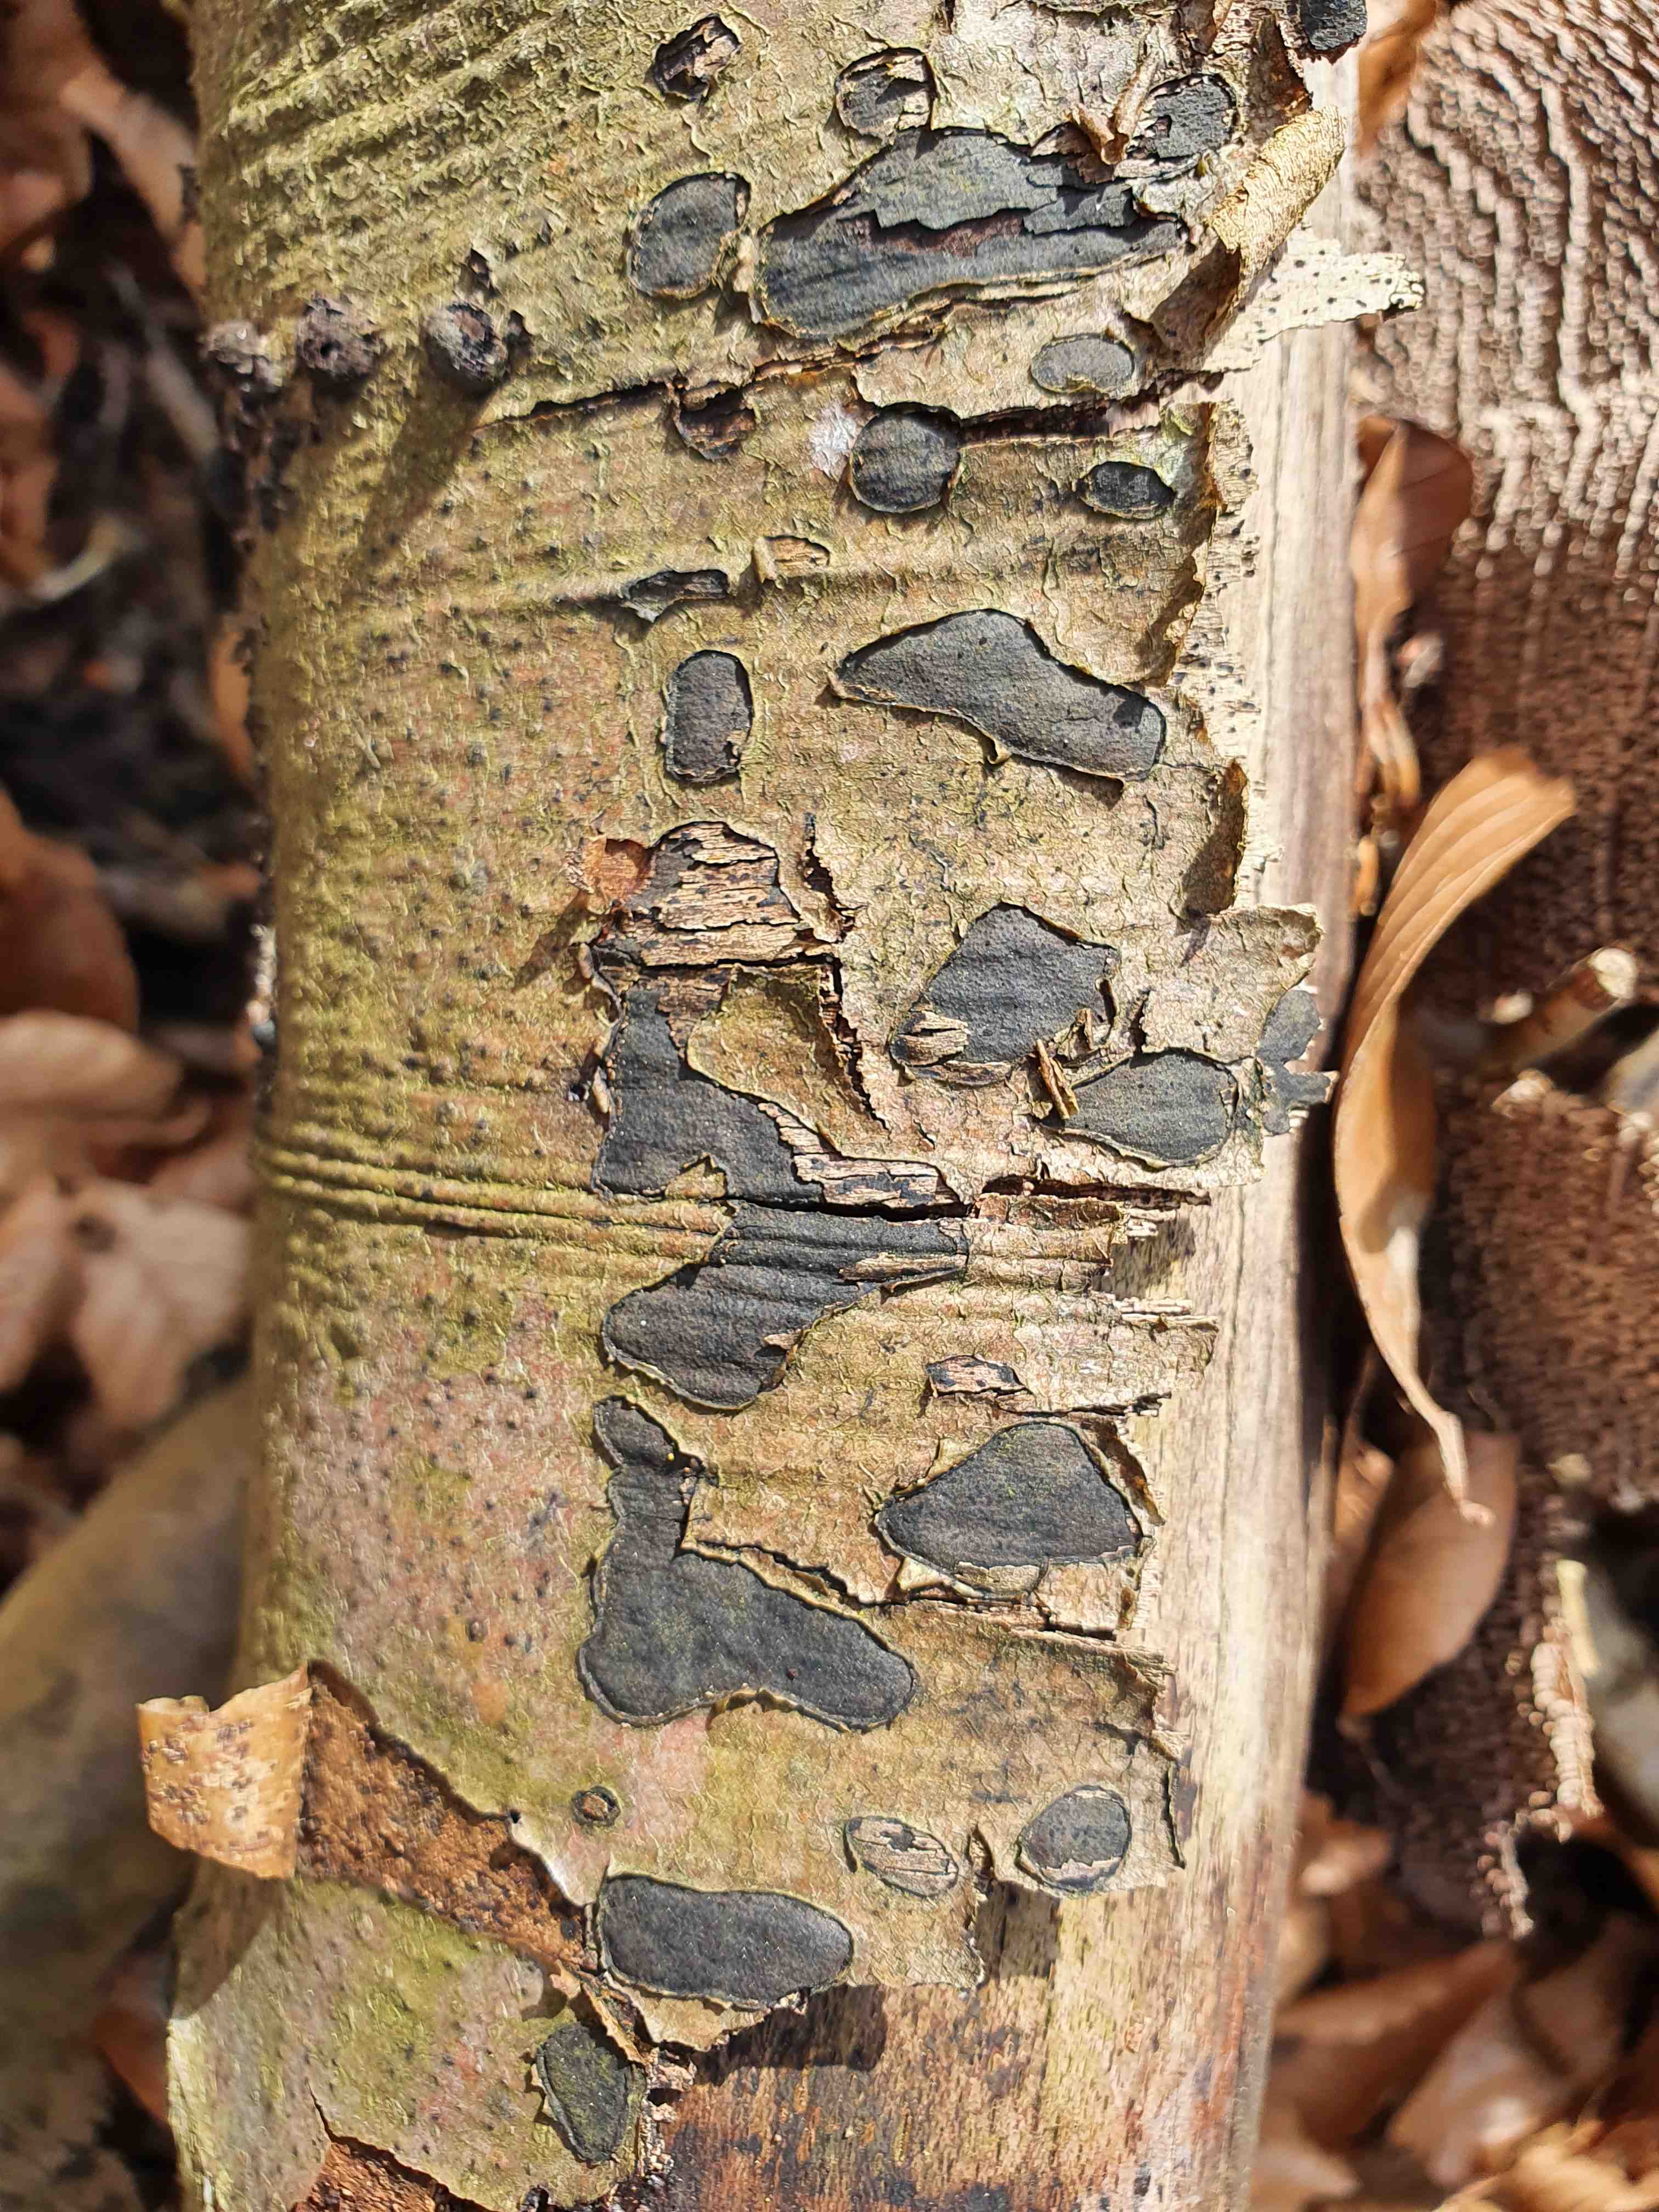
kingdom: Fungi
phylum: Ascomycota
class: Sordariomycetes
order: Xylariales
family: Graphostromataceae
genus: Biscogniauxia
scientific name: Biscogniauxia nummularia
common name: bøge-kulskive
